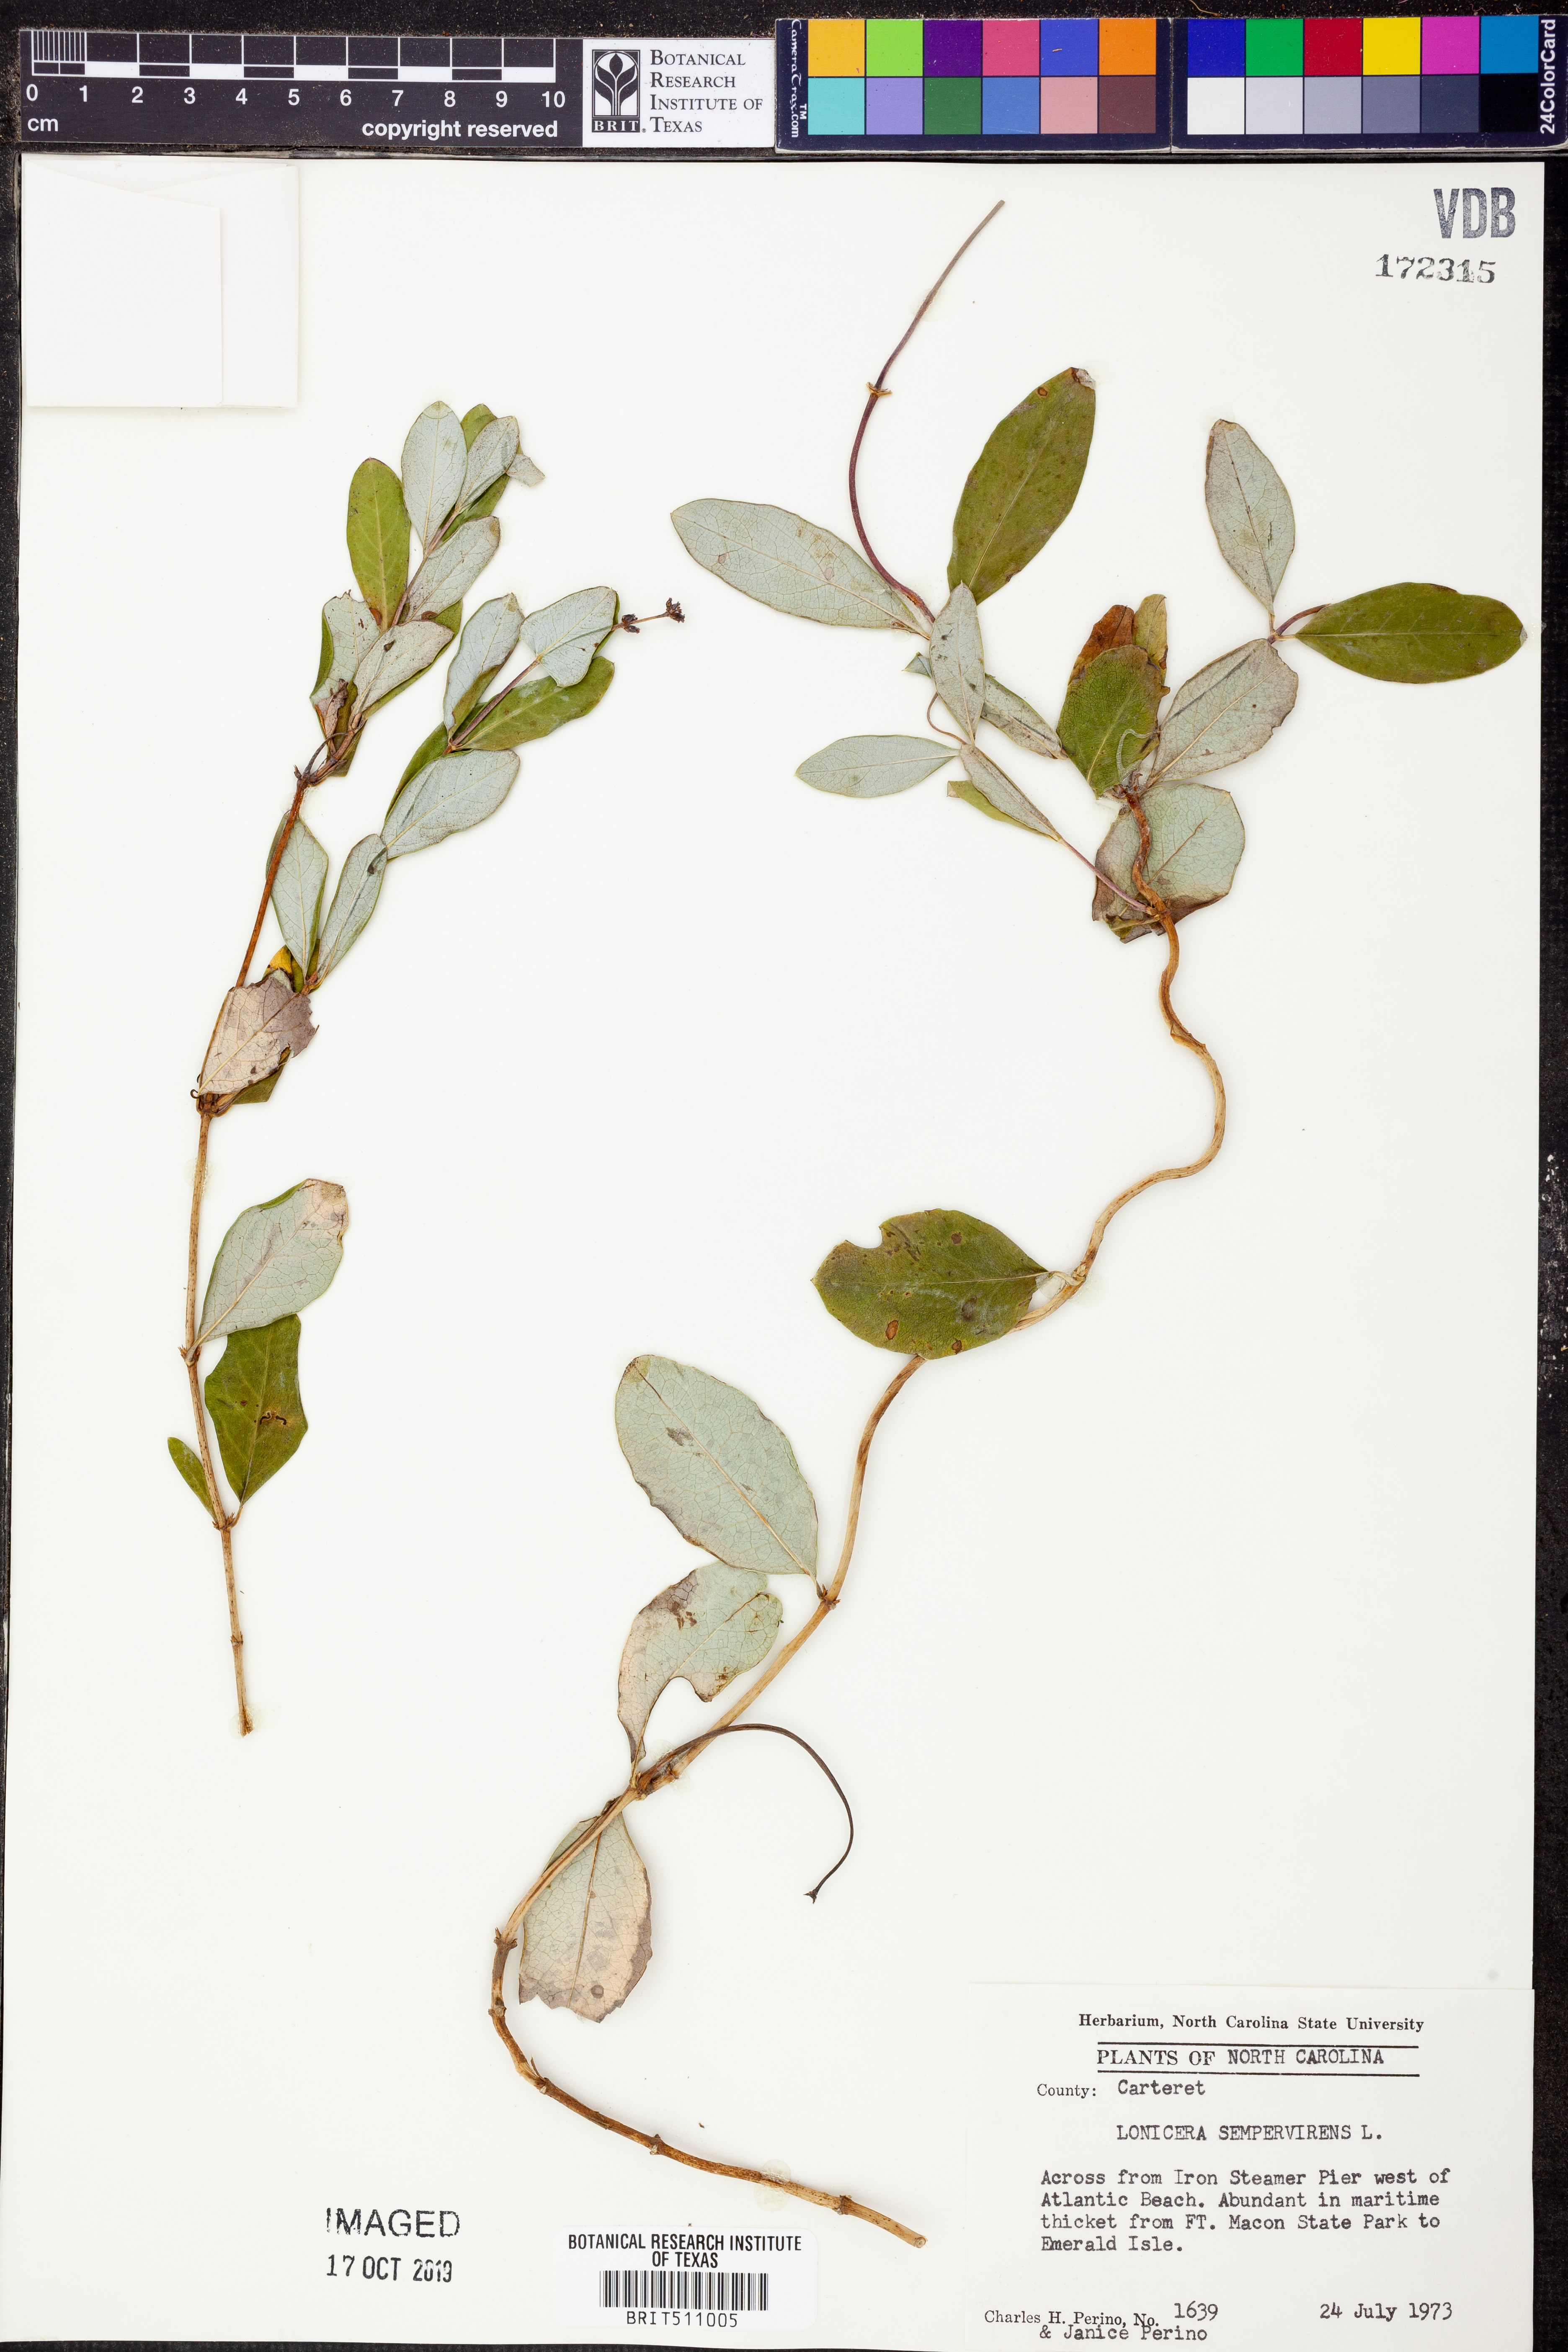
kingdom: Plantae
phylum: Tracheophyta
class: Magnoliopsida
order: Dipsacales
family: Caprifoliaceae
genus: Lonicera
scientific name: Lonicera sempervirens
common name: Coral honeysuckle
